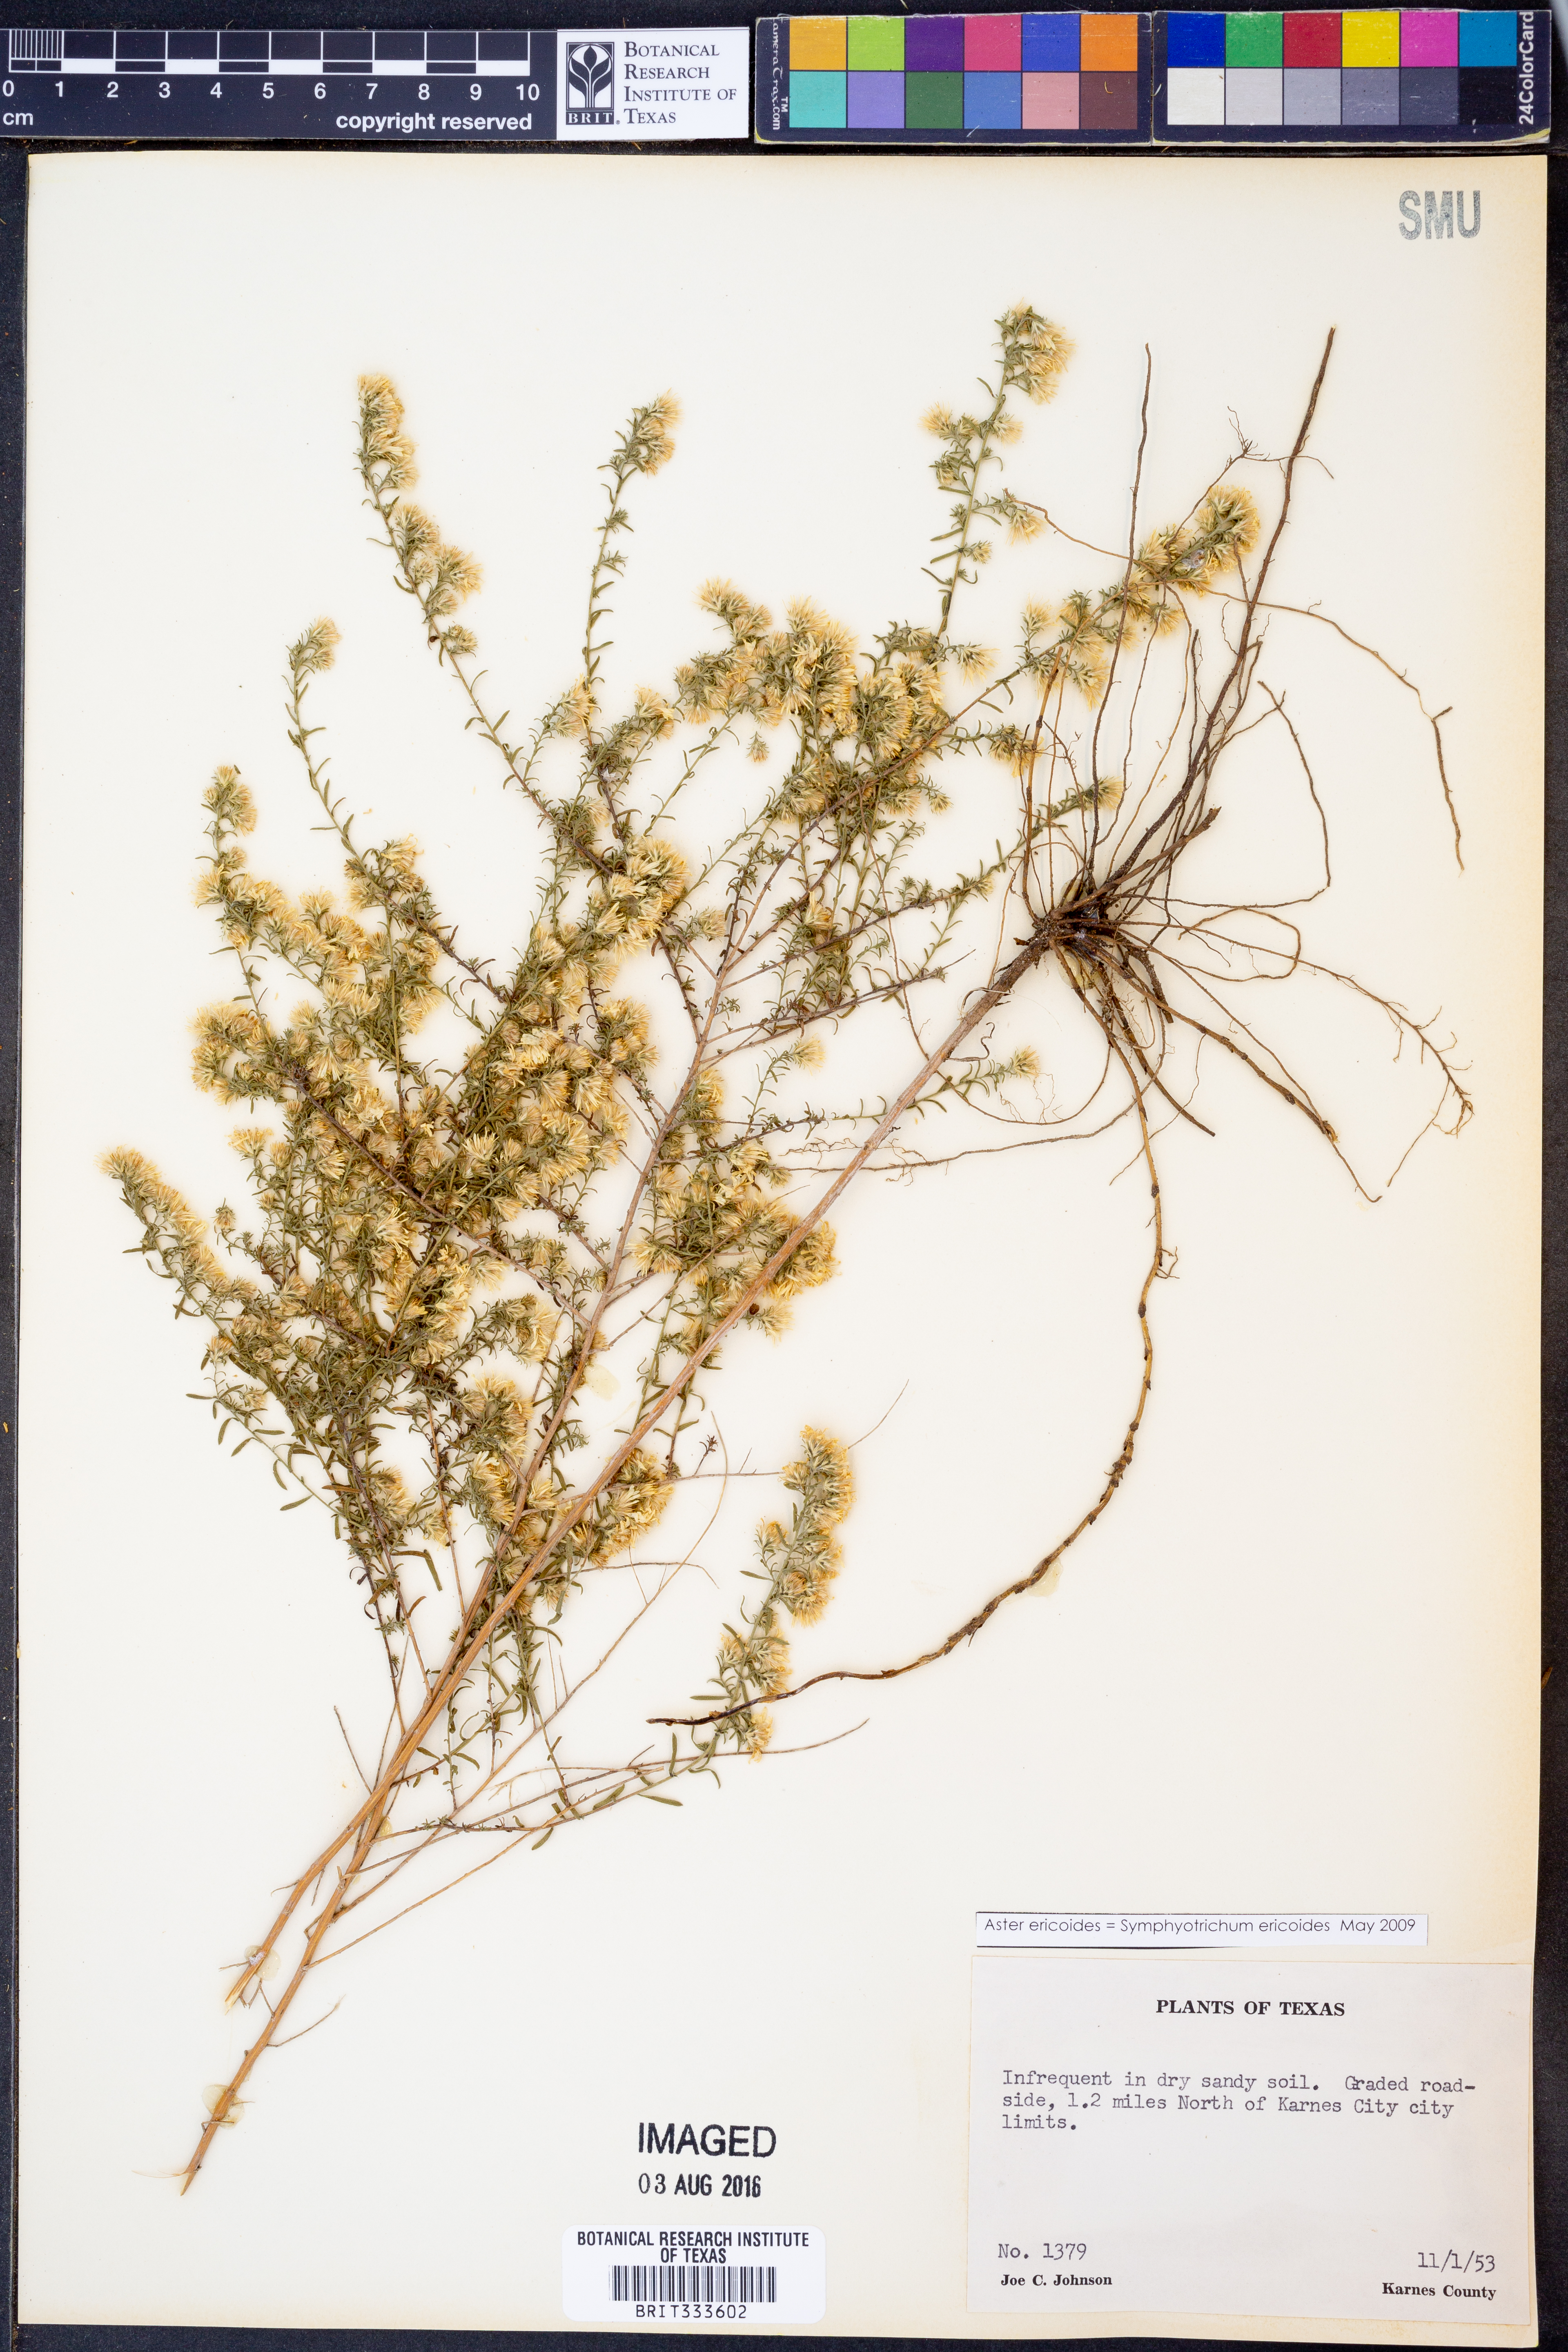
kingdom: Plantae
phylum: Tracheophyta
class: Magnoliopsida
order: Asterales
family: Asteraceae
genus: Symphyotrichum
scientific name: Symphyotrichum ericoides
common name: Heath aster
